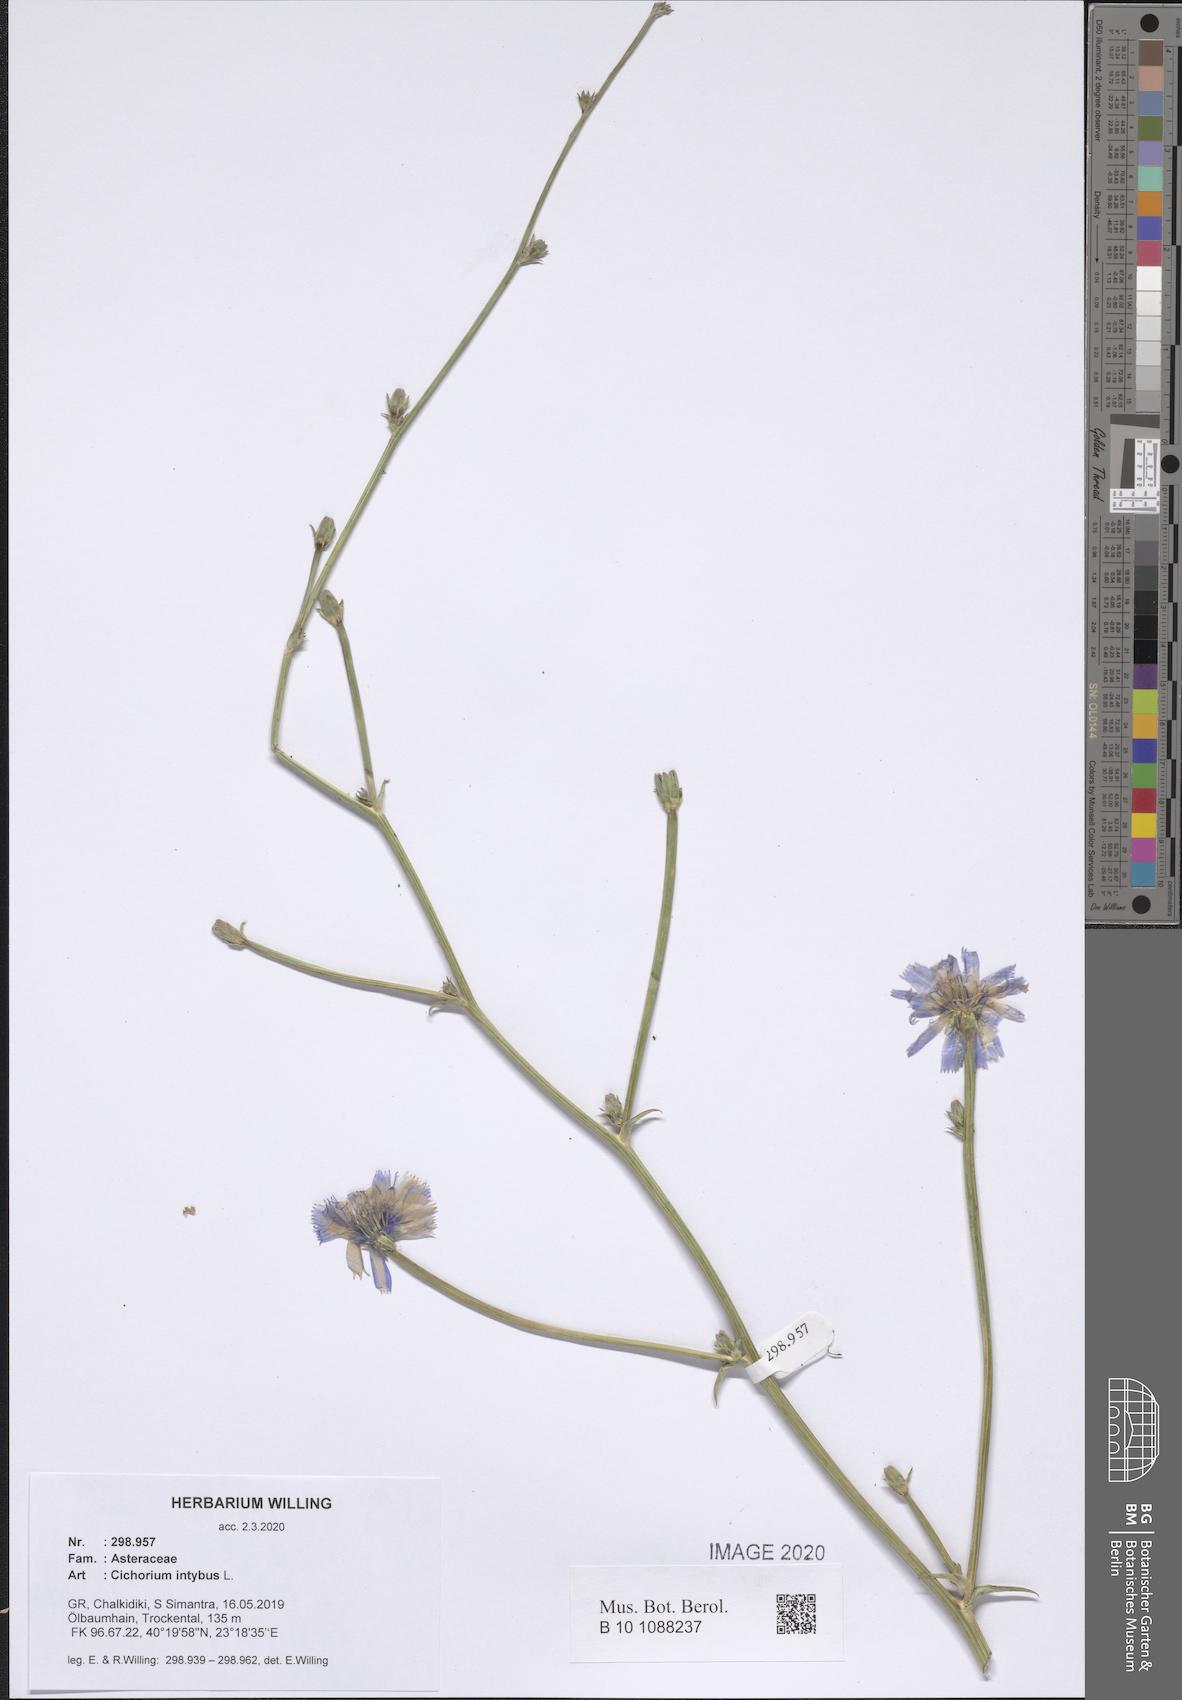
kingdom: Plantae
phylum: Tracheophyta
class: Magnoliopsida
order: Asterales
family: Asteraceae
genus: Cichorium
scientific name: Cichorium intybus
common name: Chicory
